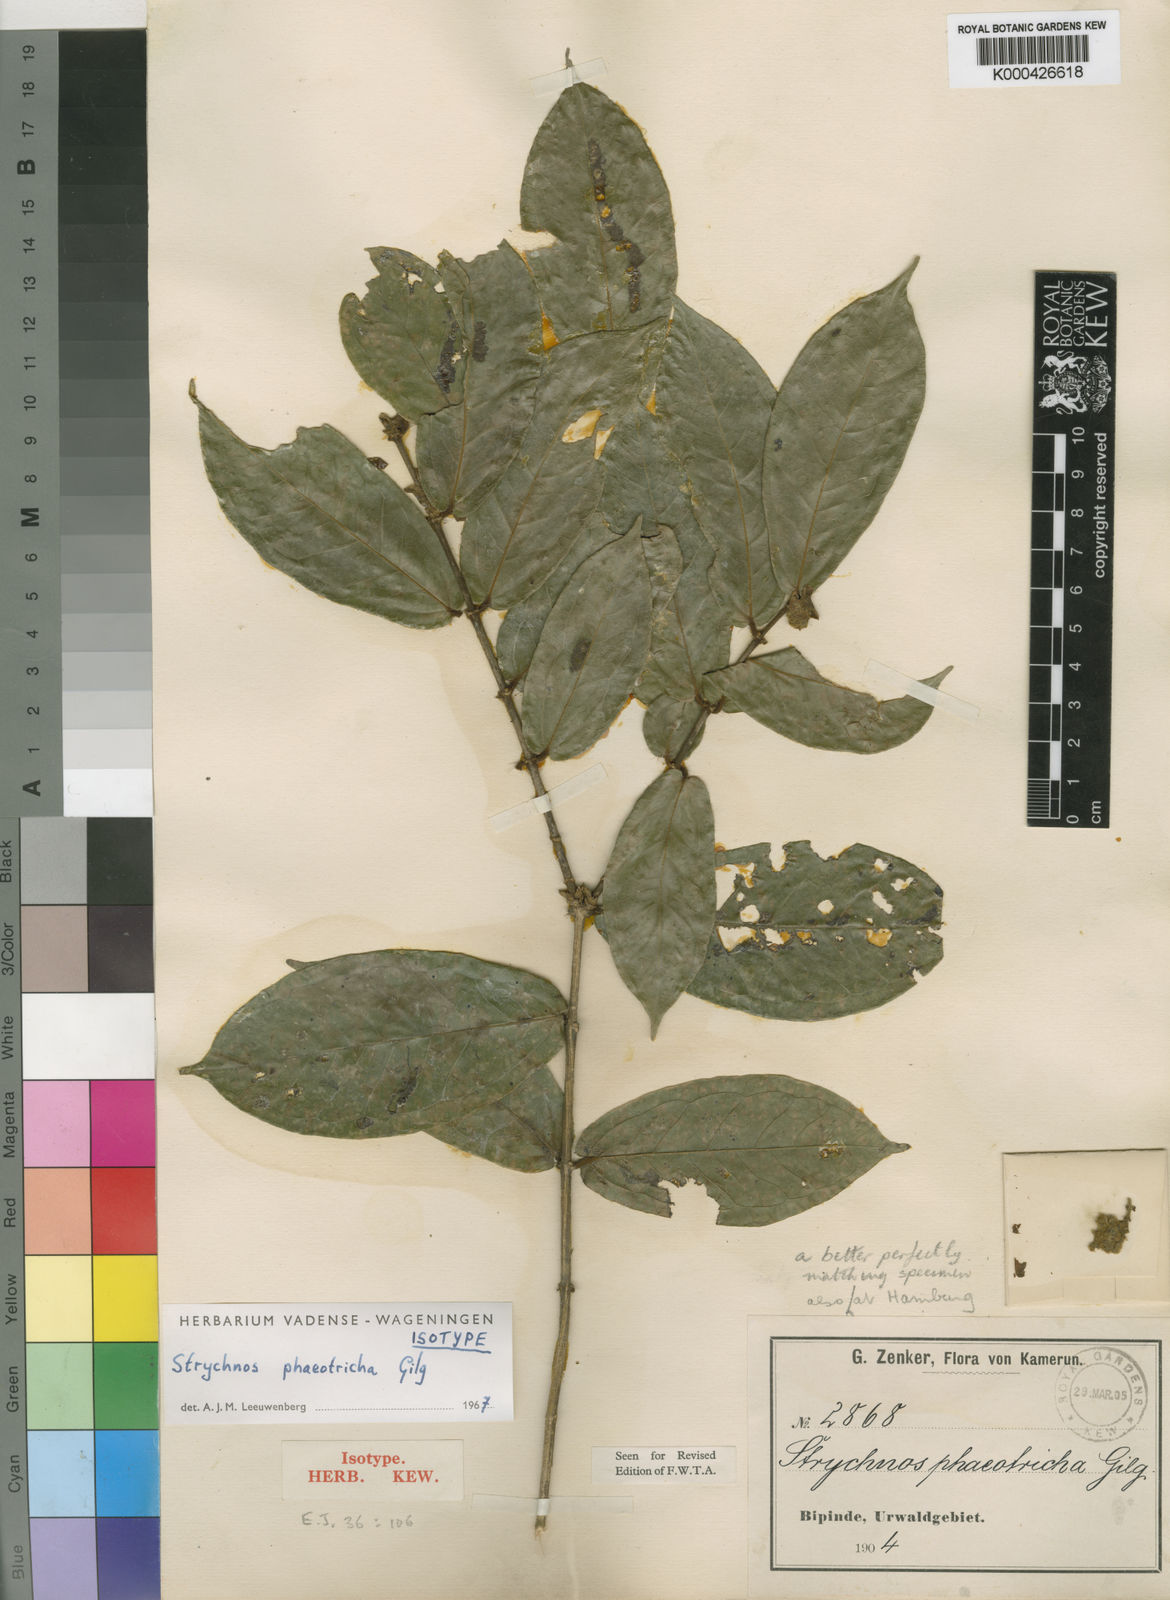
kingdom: Plantae
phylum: Tracheophyta
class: Magnoliopsida
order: Gentianales
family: Loganiaceae
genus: Strychnos
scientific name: Strychnos phaeotricha
